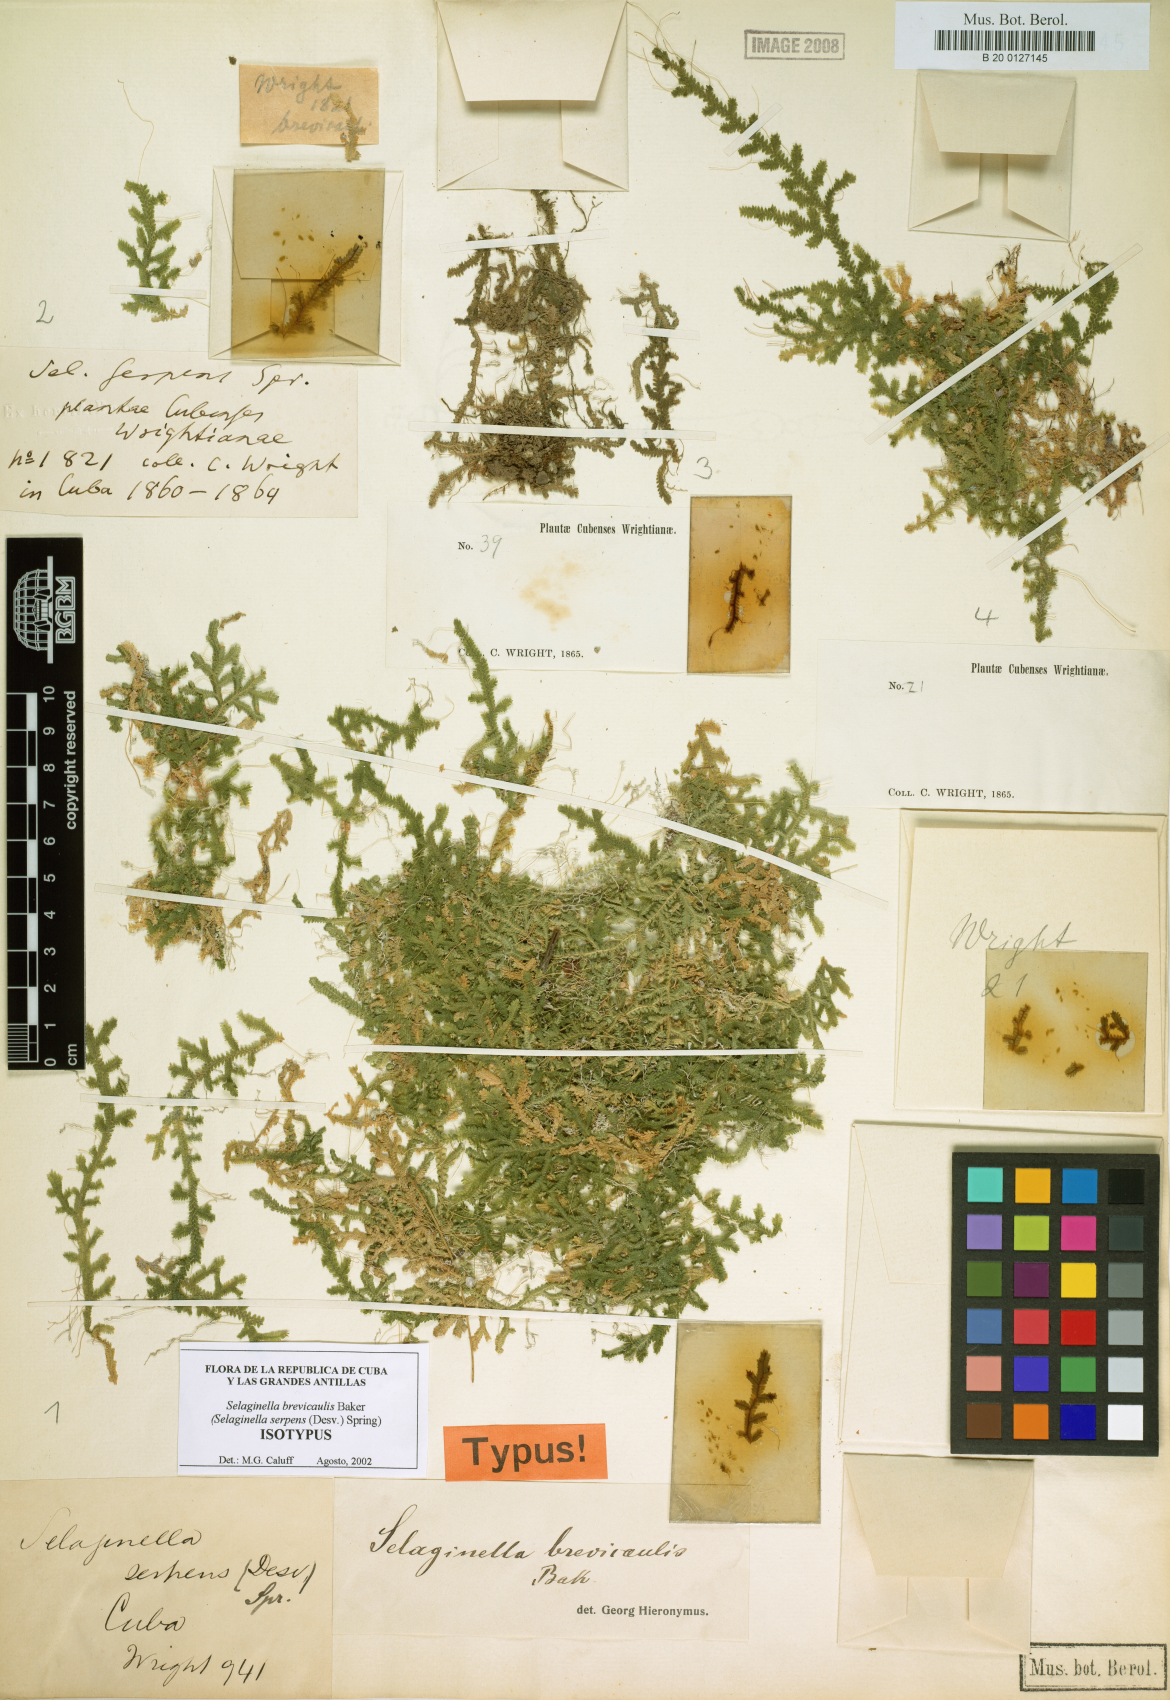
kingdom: Plantae
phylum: Tracheophyta
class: Lycopodiopsida
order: Selaginellales
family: Selaginellaceae
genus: Selaginella
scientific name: Selaginella heterodonta
